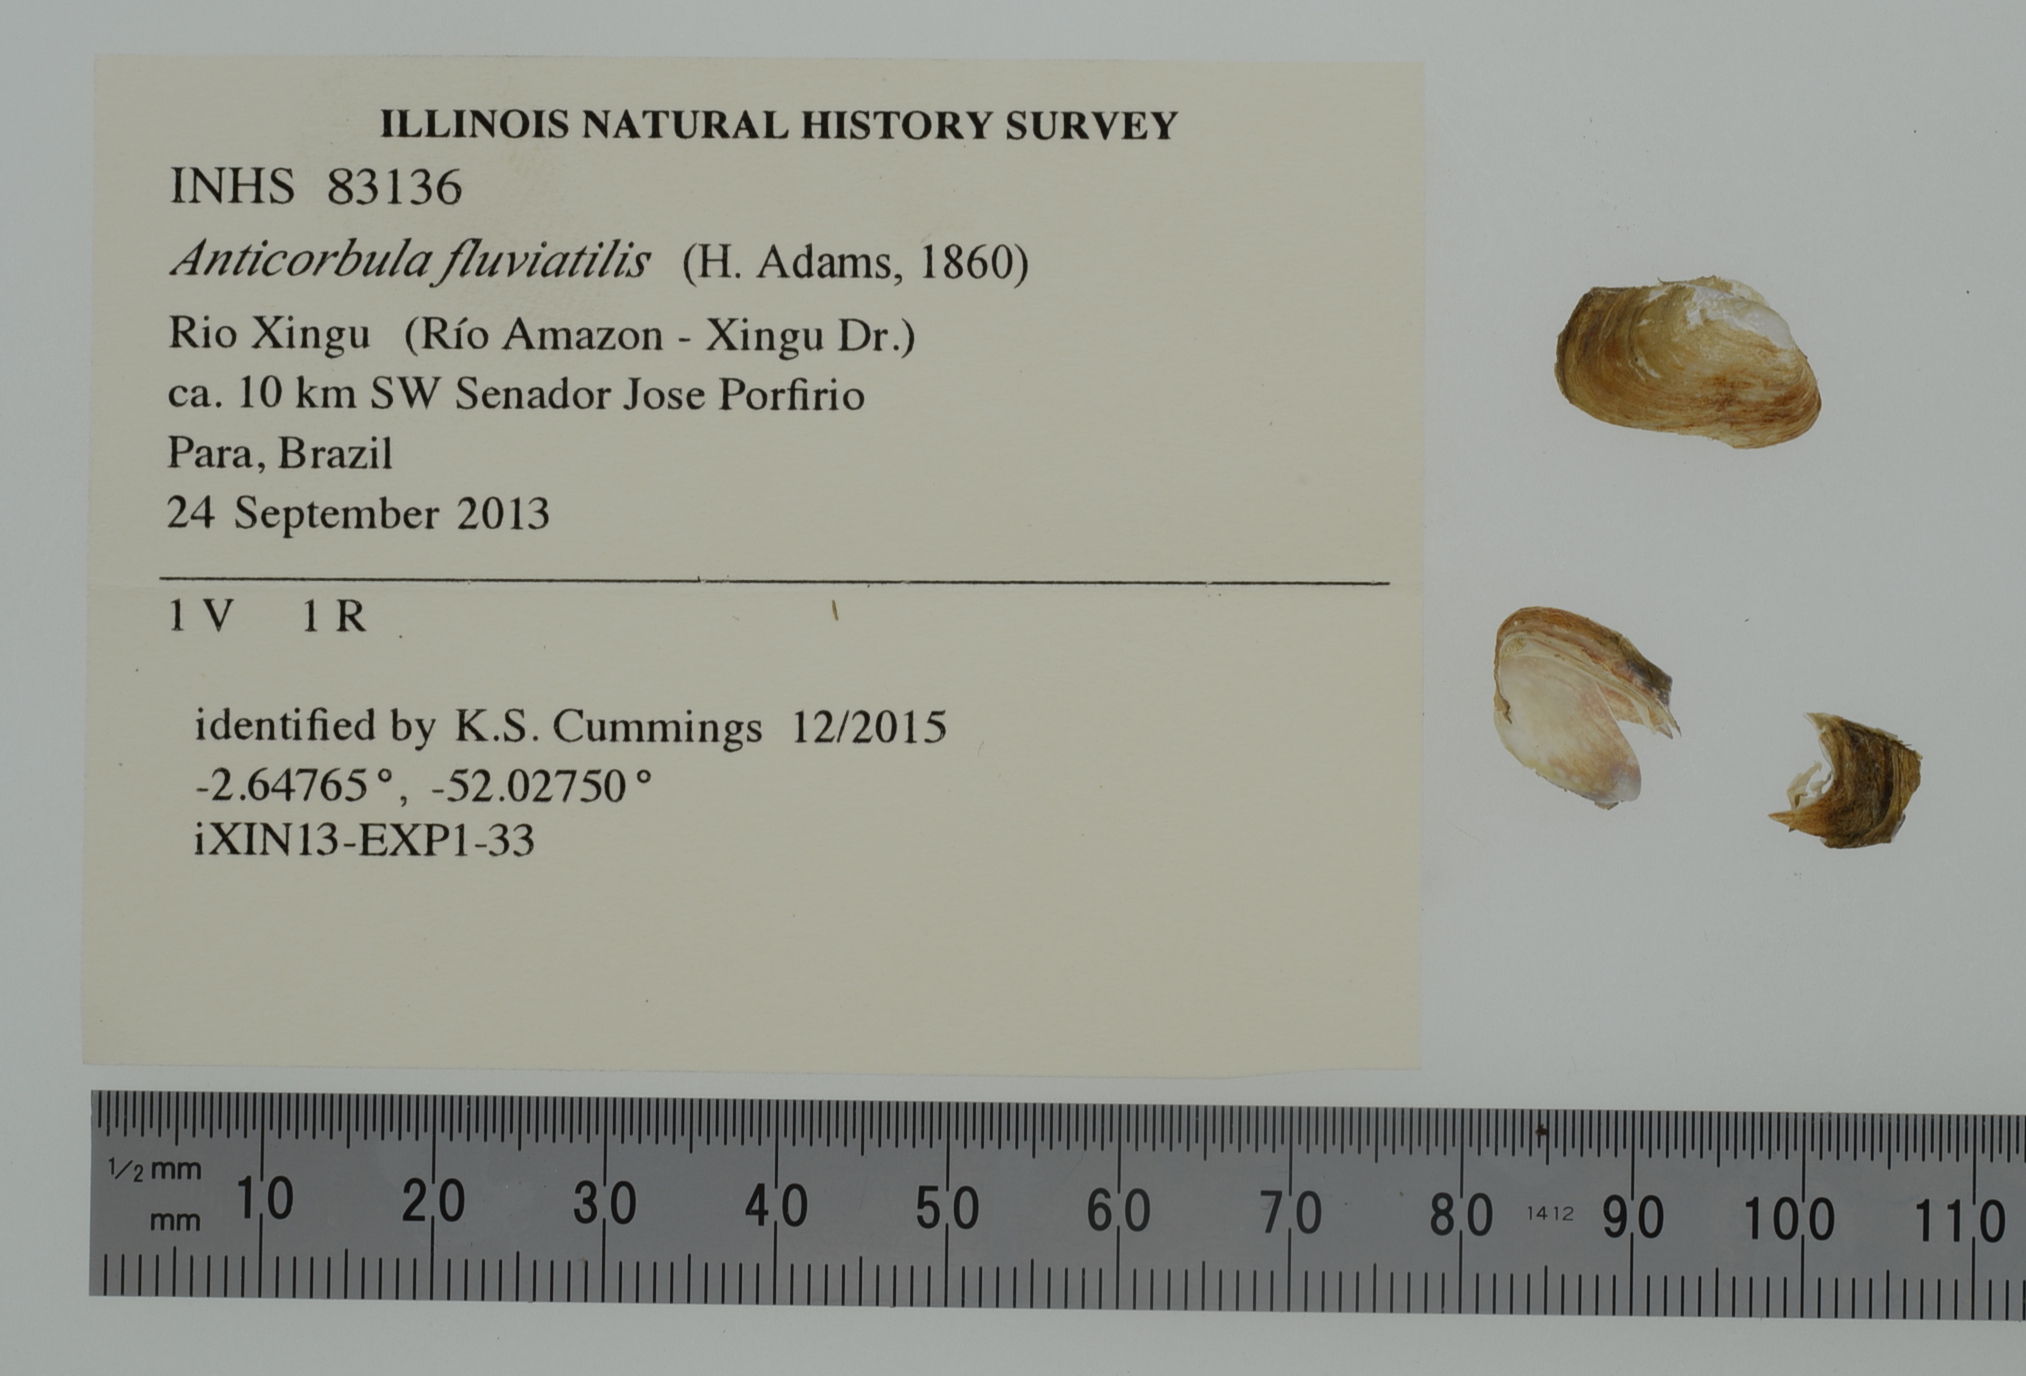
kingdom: Animalia
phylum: Mollusca
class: Bivalvia
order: Myida
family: Corbulidae
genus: Anticorbula
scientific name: Anticorbula fluviatilis
